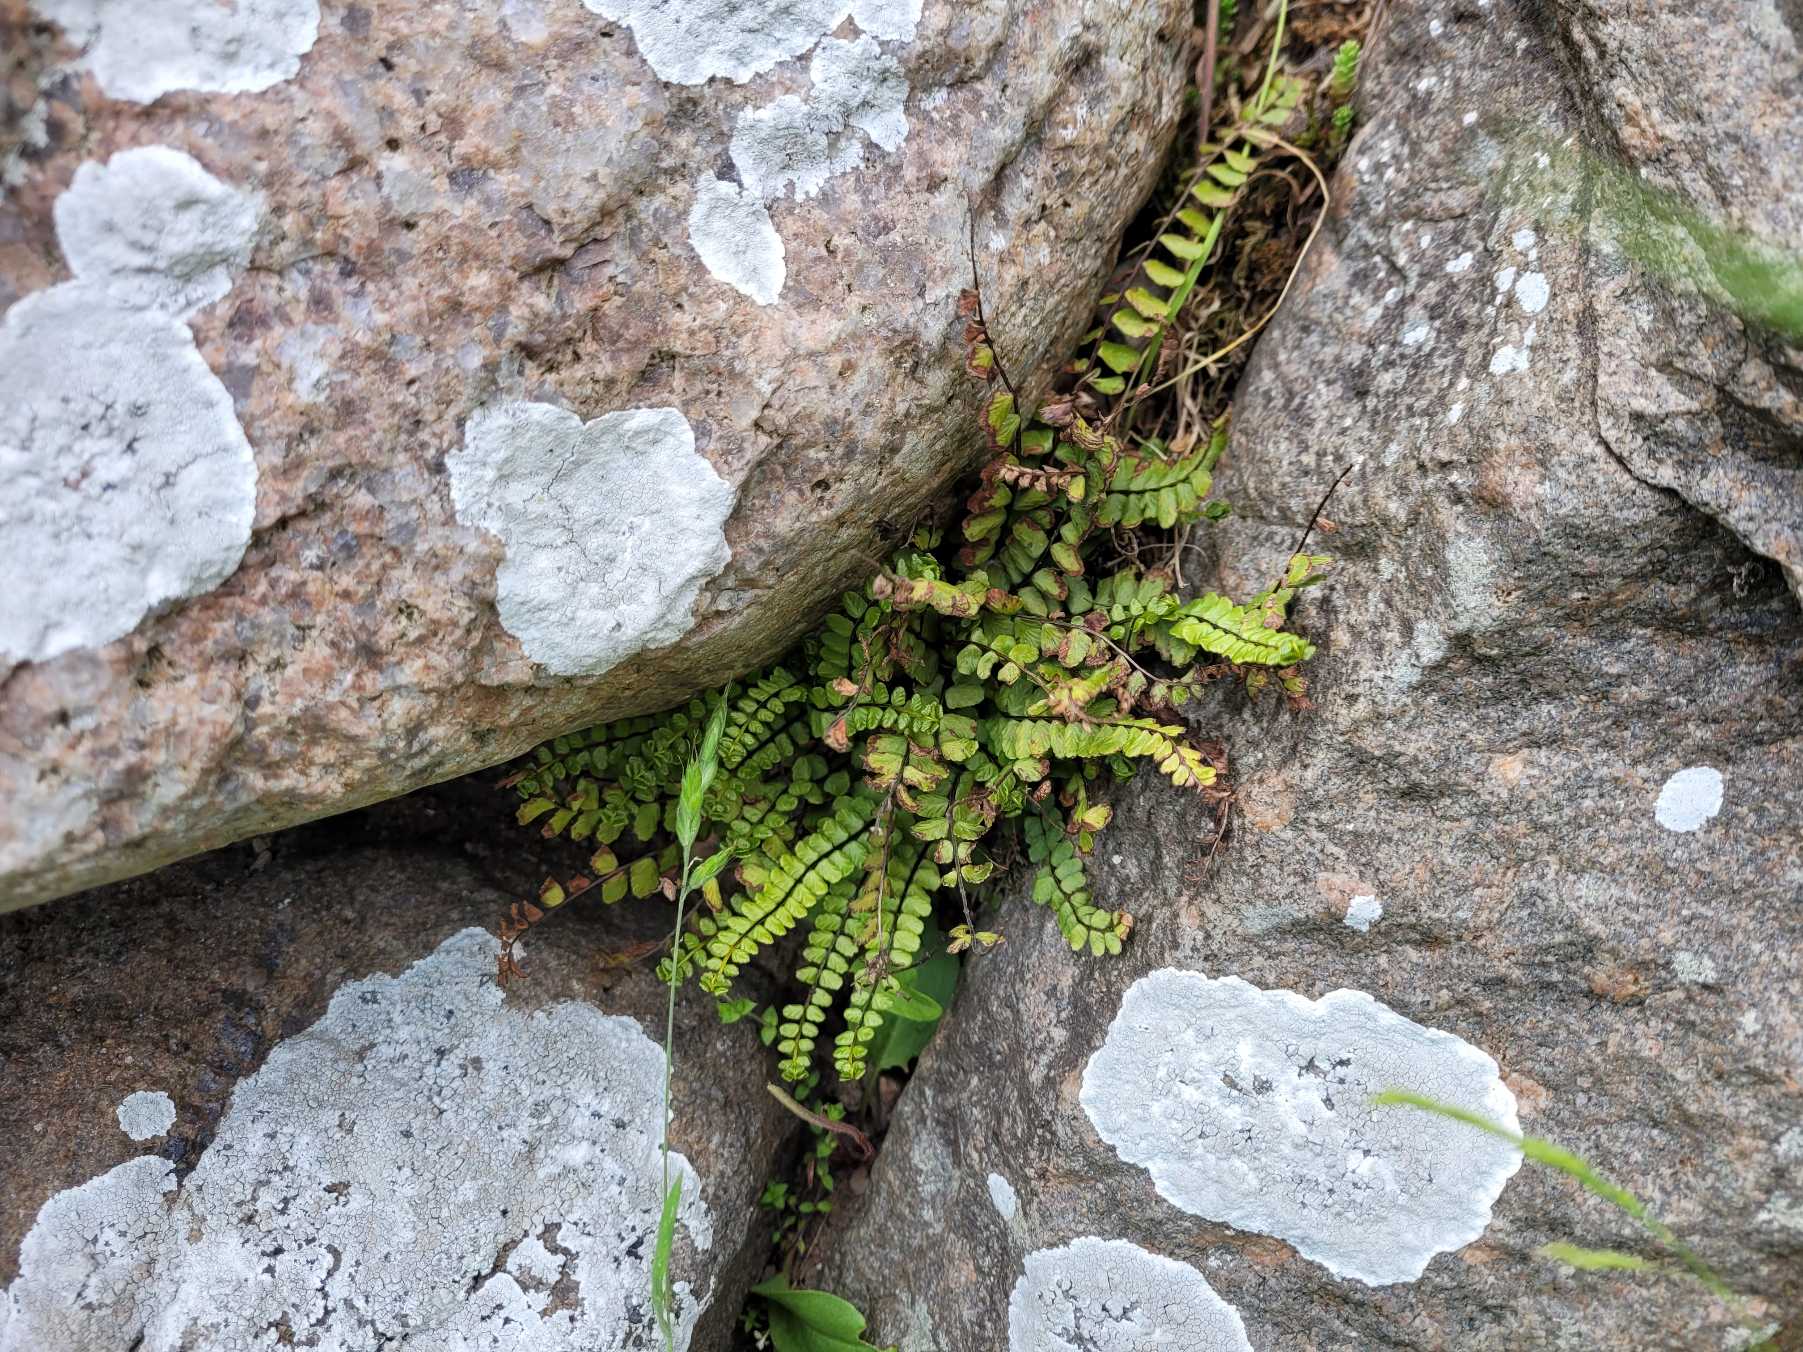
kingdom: Plantae
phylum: Tracheophyta
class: Polypodiopsida
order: Polypodiales
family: Aspleniaceae
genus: Asplenium
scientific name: Asplenium trichomanes
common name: Rundfinnet radeløv
